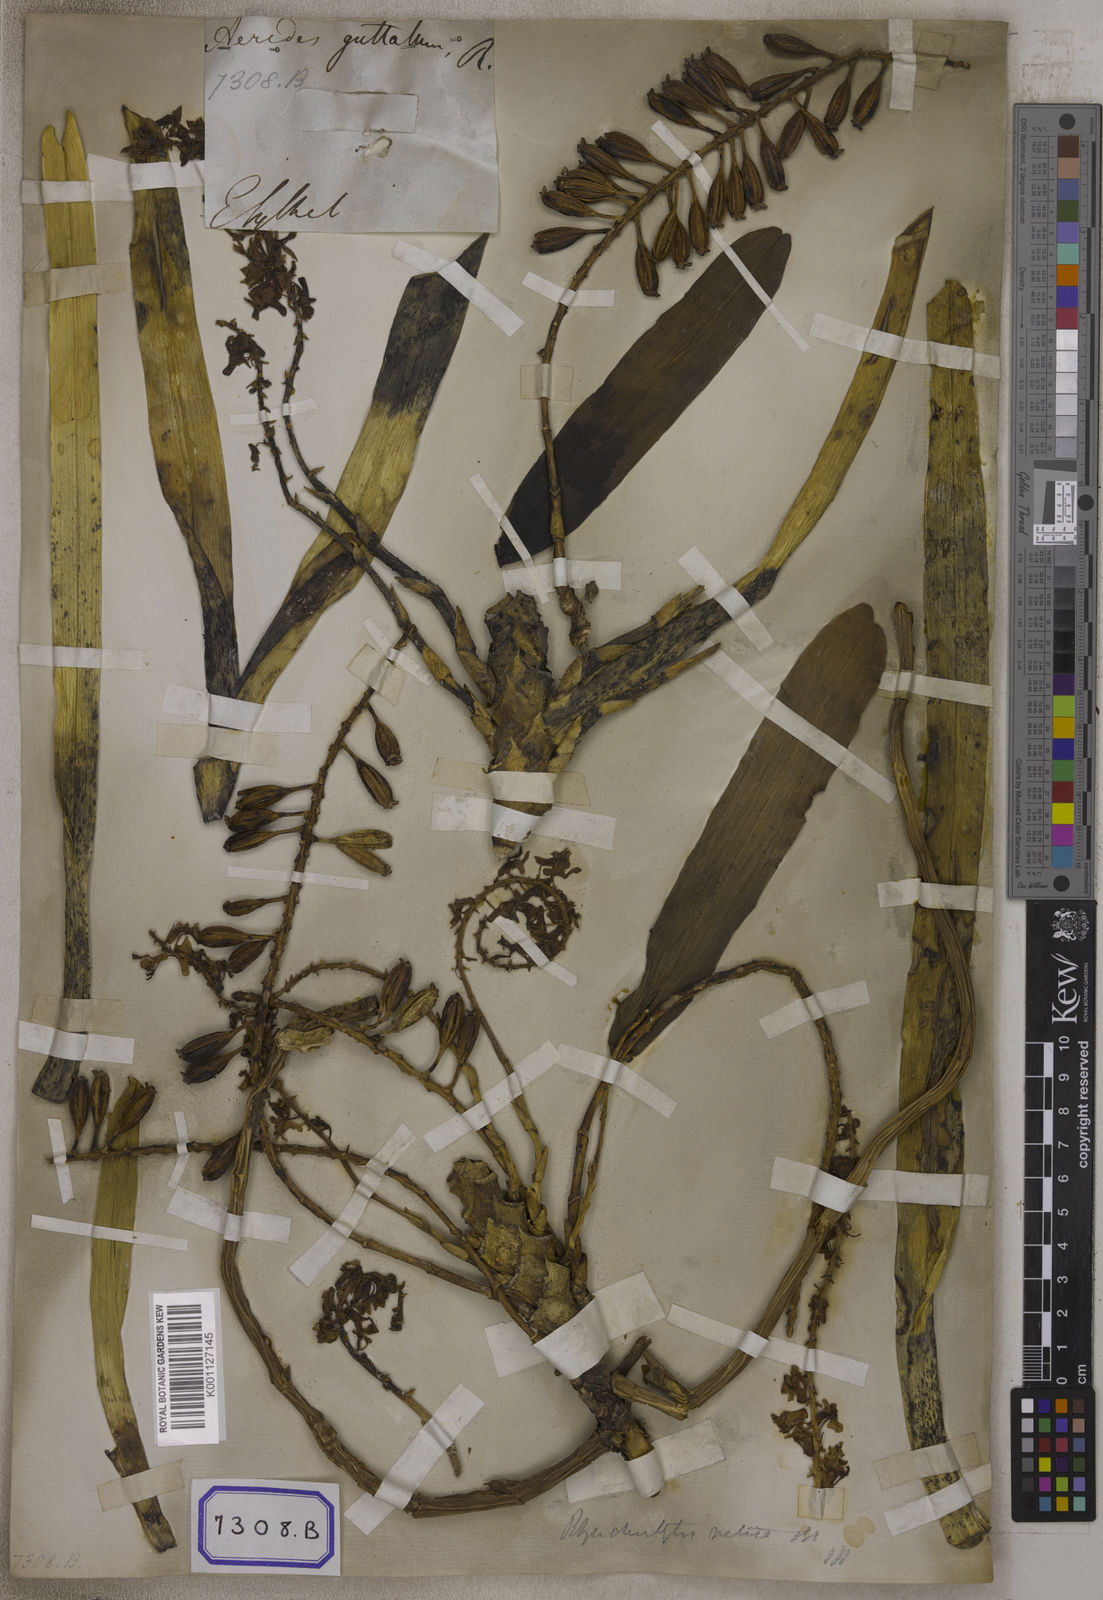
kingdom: Plantae
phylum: Tracheophyta
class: Liliopsida
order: Asparagales
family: Orchidaceae
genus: Saccolabium
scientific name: Saccolabium
